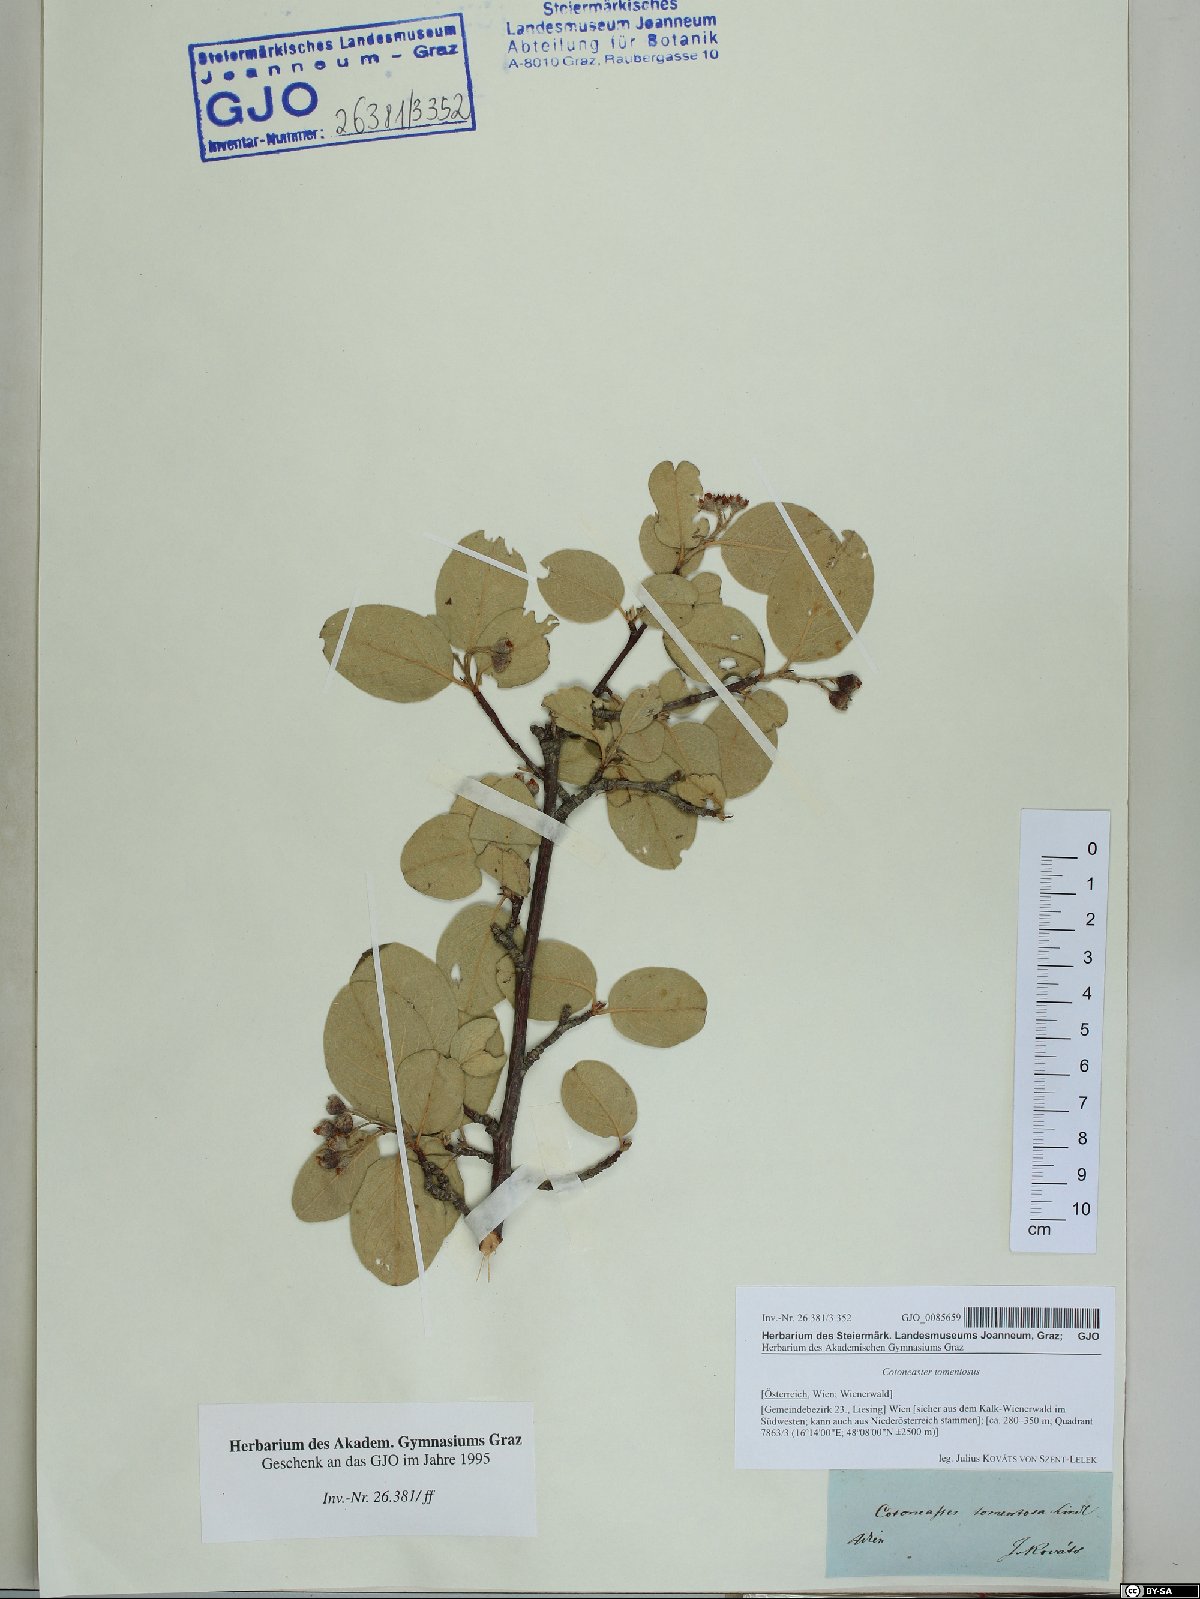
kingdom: Plantae
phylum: Tracheophyta
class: Magnoliopsida
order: Rosales
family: Rosaceae
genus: Cotoneaster
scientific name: Cotoneaster tomentosus
